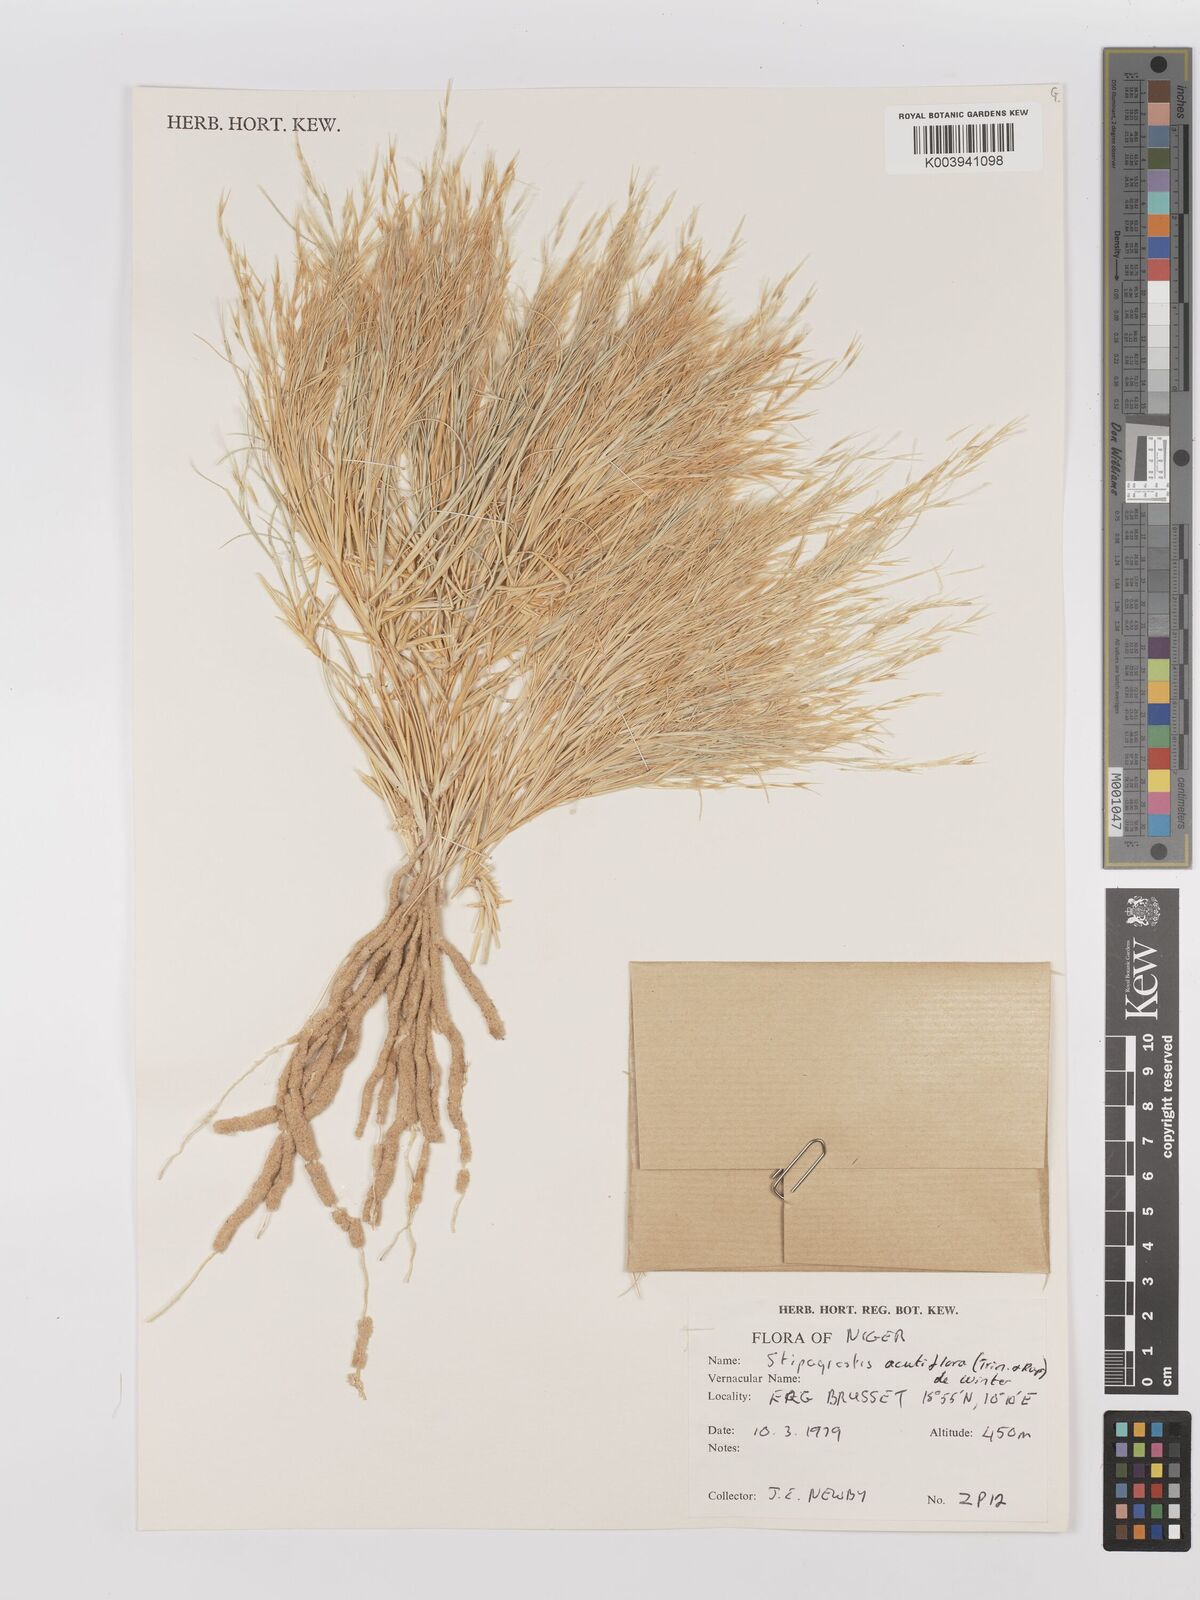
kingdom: Plantae
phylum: Tracheophyta
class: Liliopsida
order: Poales
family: Poaceae
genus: Stipagrostis
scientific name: Stipagrostis acutiflora
